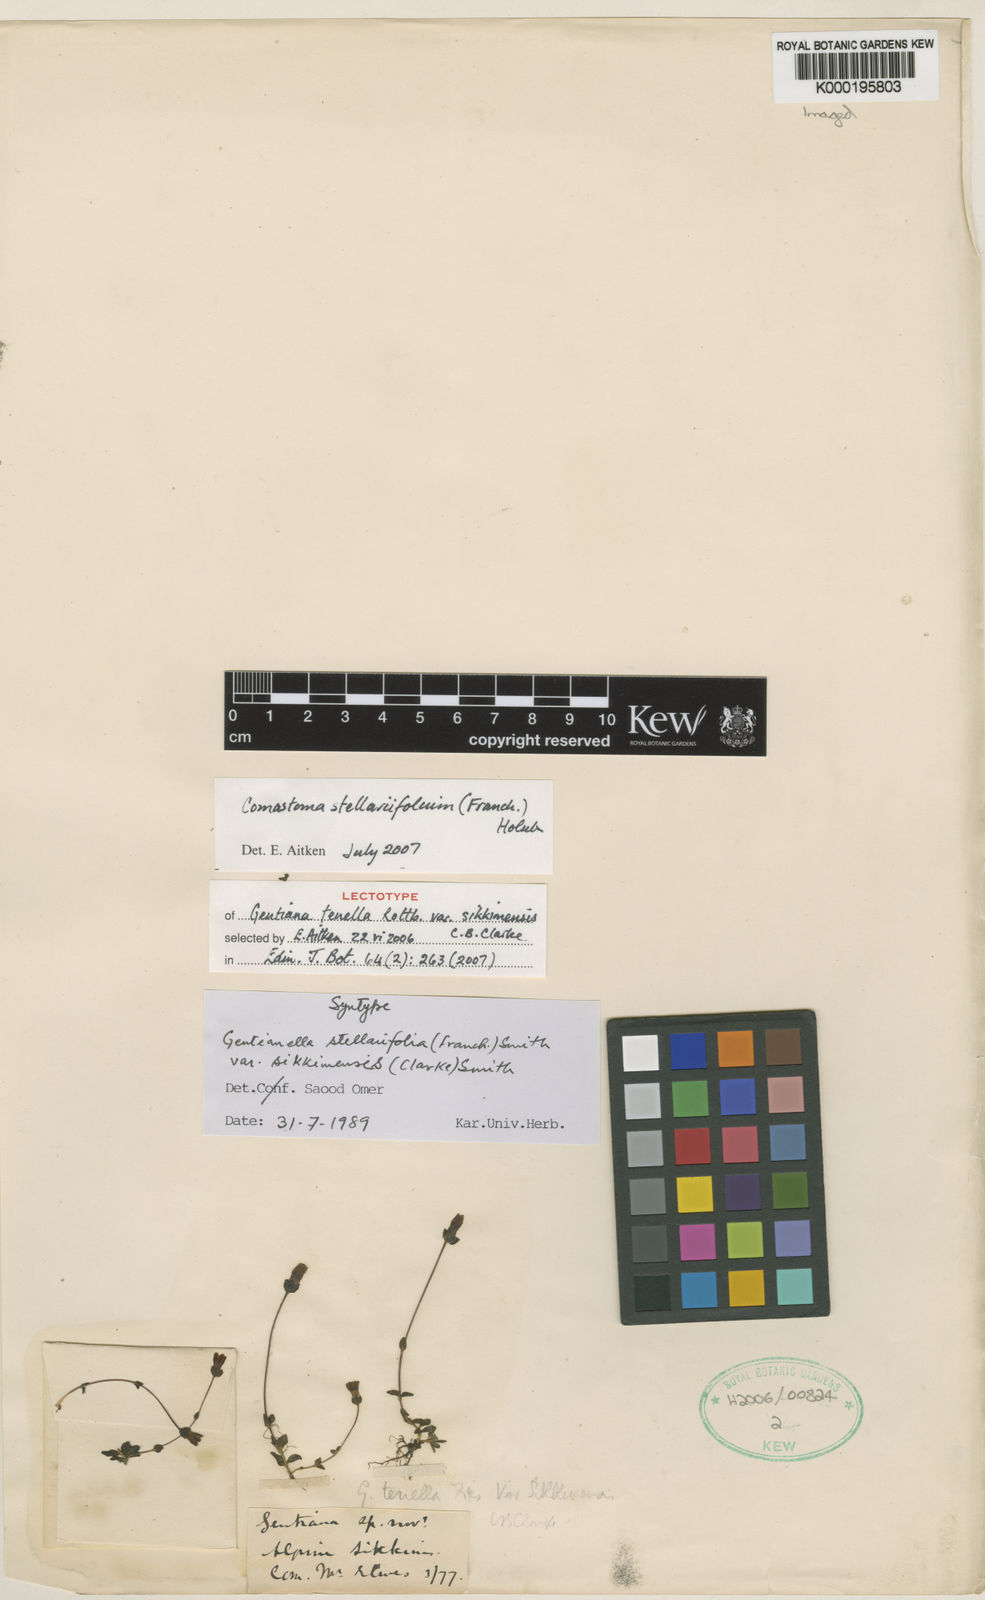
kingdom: Plantae
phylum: Tracheophyta
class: Magnoliopsida
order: Gentianales
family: Gentianaceae
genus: Comastoma
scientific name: Comastoma stellariifolium
